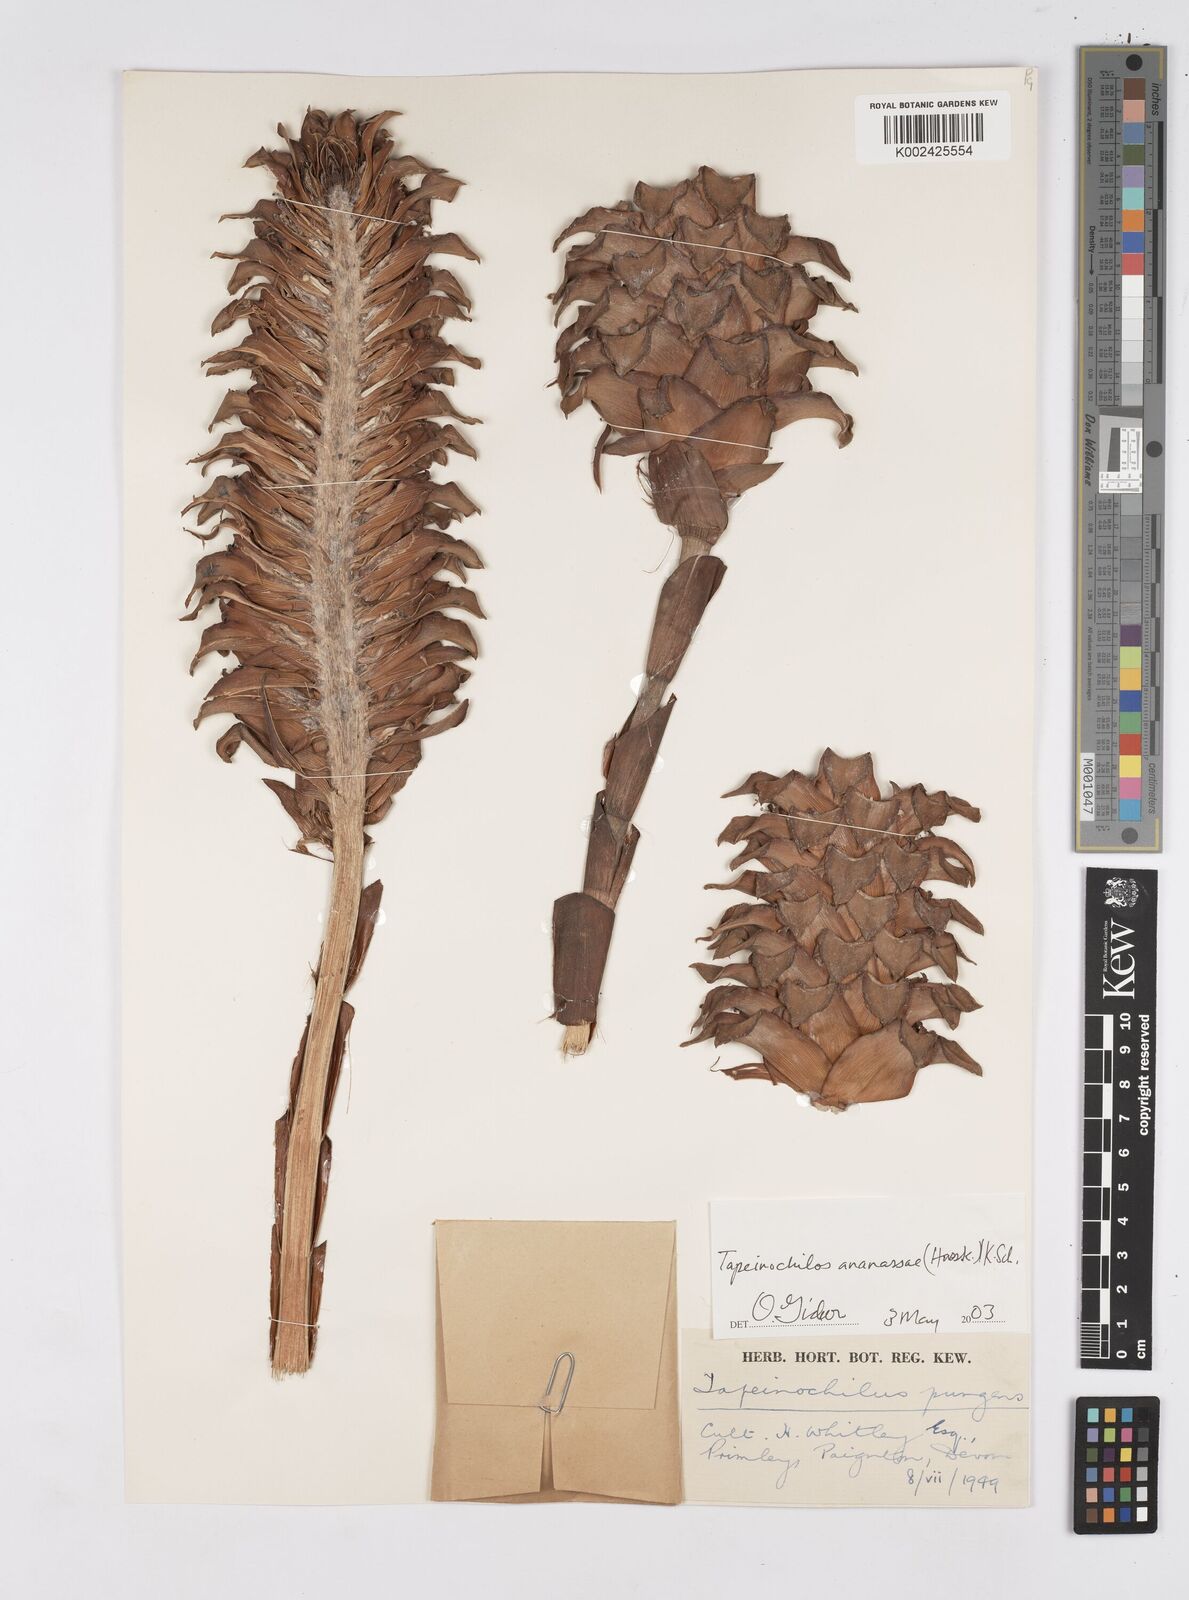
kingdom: Plantae
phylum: Tracheophyta
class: Liliopsida
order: Zingiberales
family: Costaceae
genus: Tapeinochilos
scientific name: Tapeinochilos ananassae
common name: Torch-ginger
